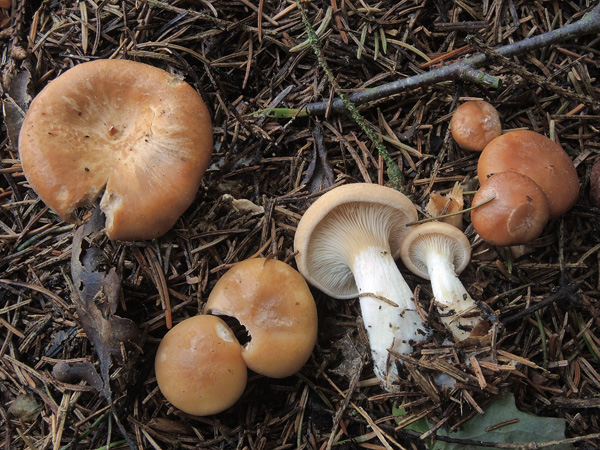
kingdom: Fungi
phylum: Basidiomycota
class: Agaricomycetes
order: Agaricales
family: Tricholomataceae
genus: Paralepista
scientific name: Paralepista gilva
